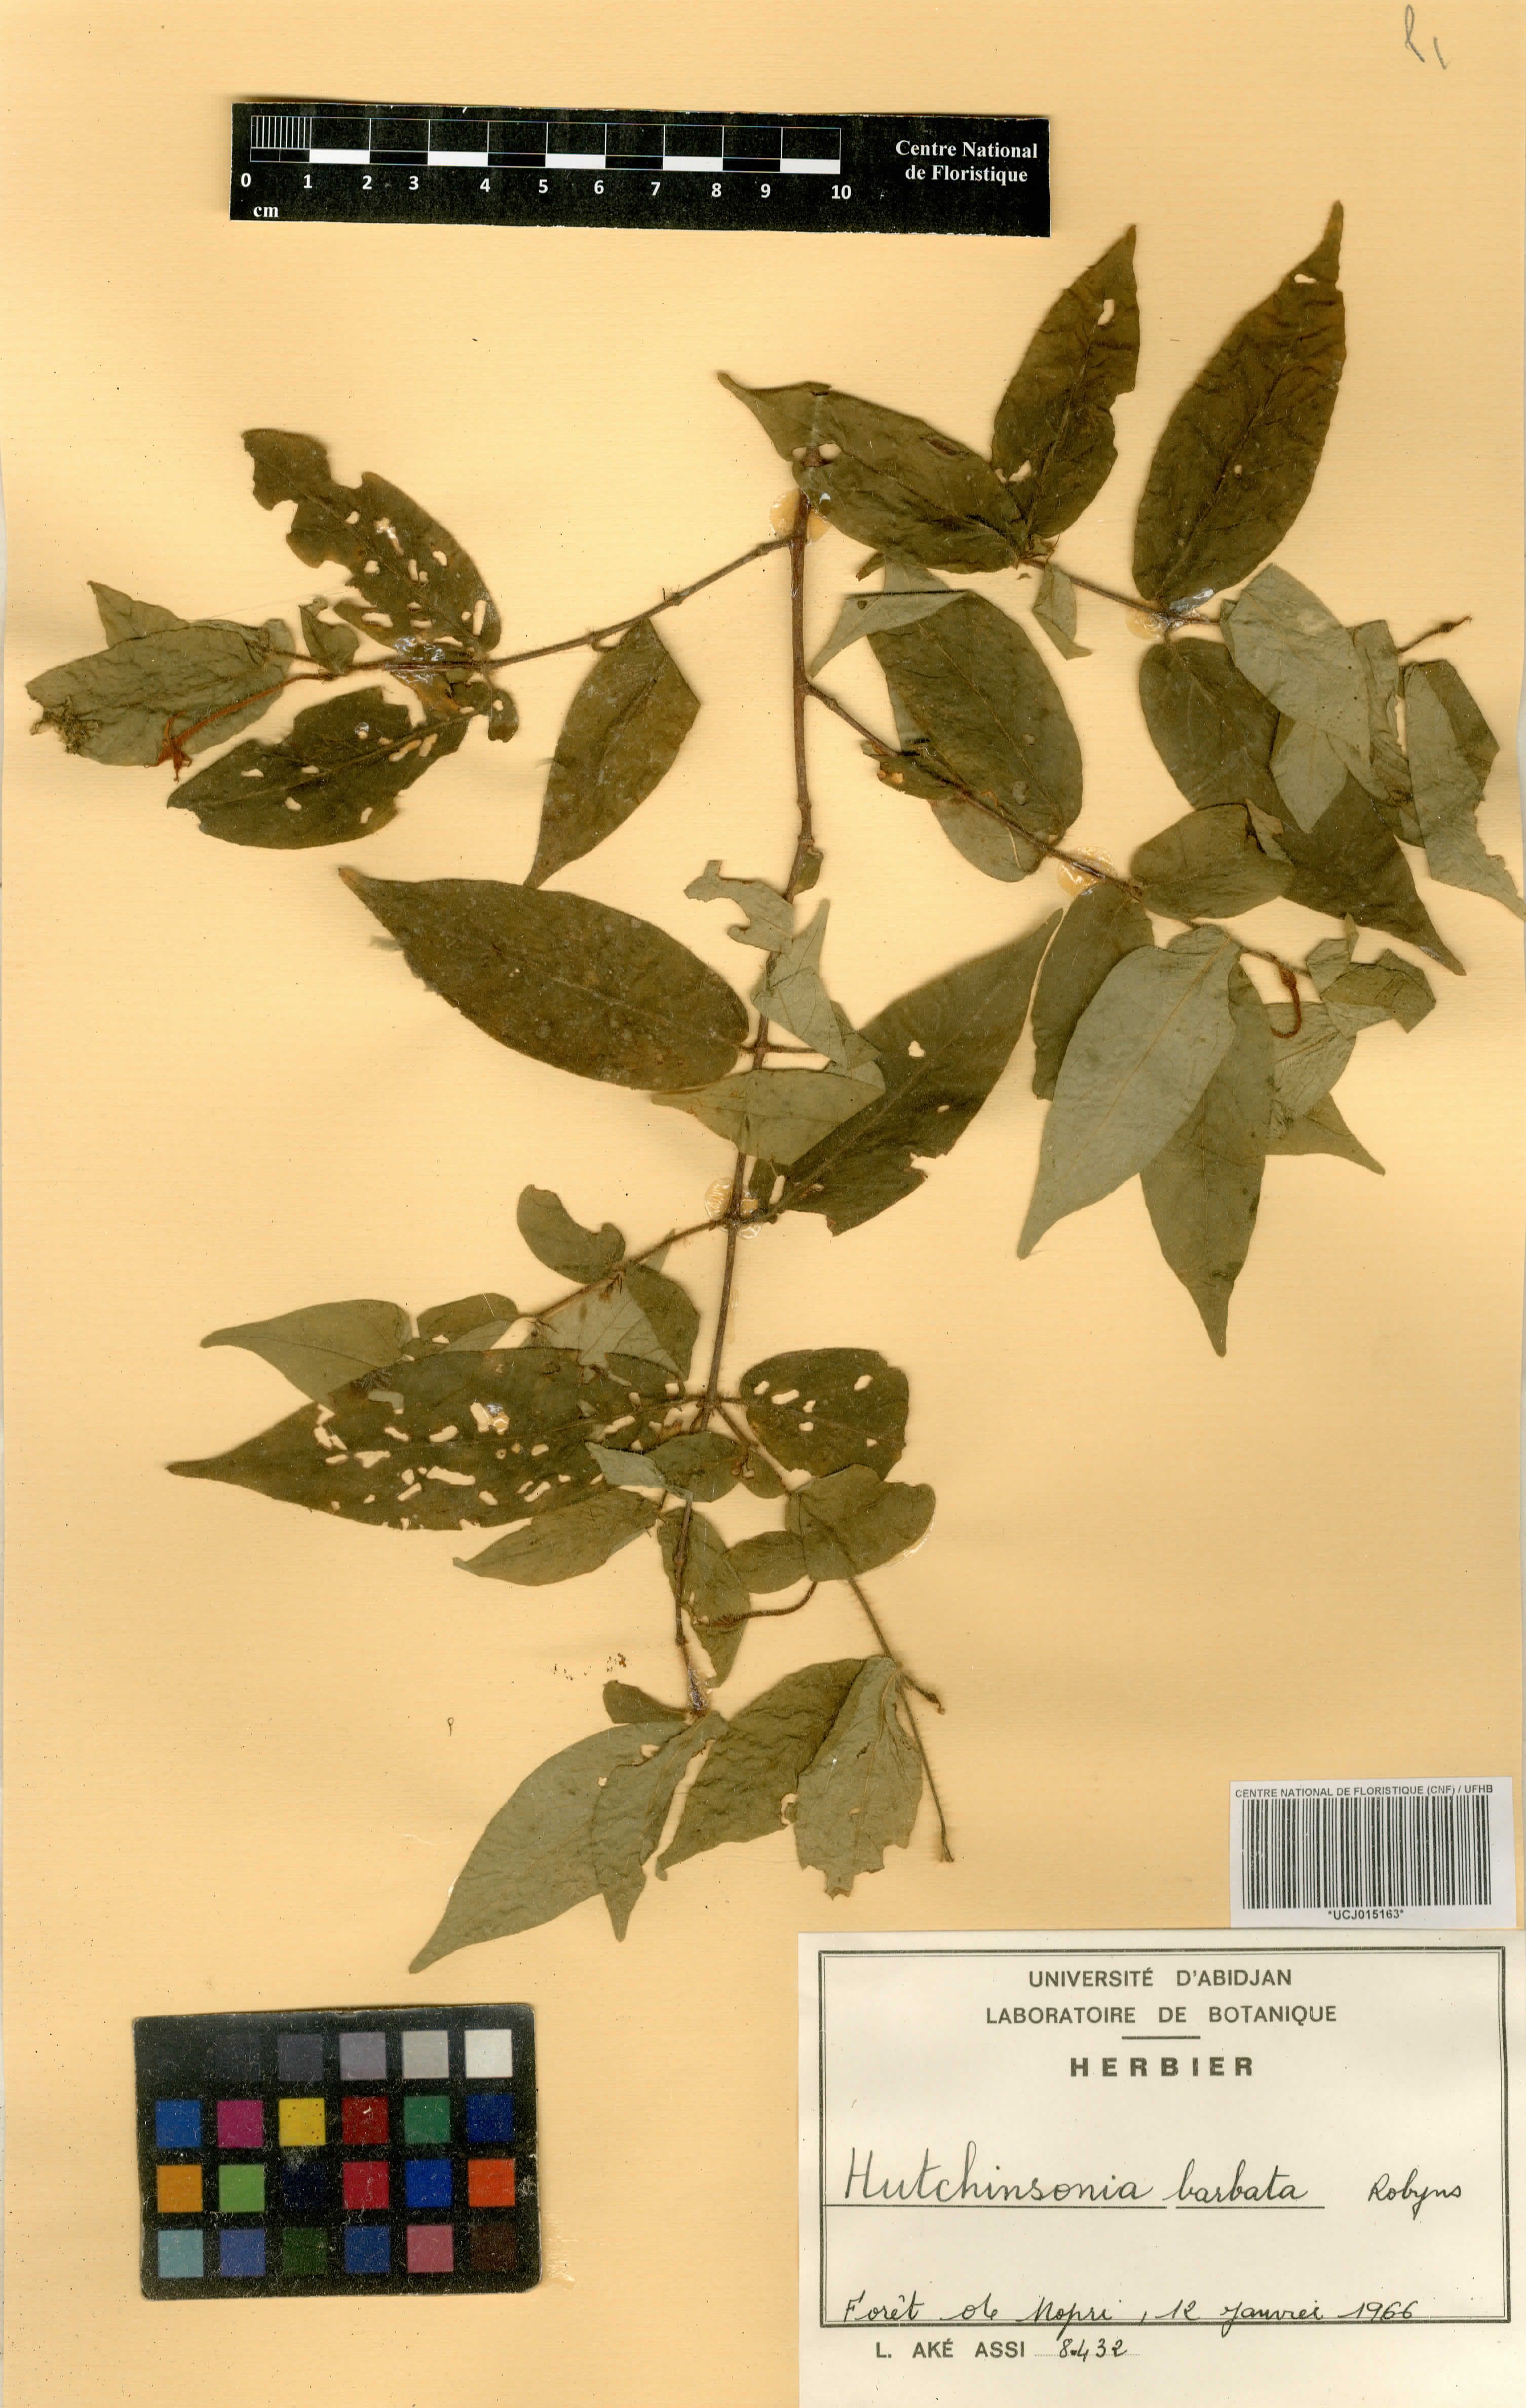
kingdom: Plantae
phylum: Tracheophyta
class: Magnoliopsida
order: Gentianales
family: Rubiaceae
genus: Hutchinsonia
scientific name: Hutchinsonia barbata
